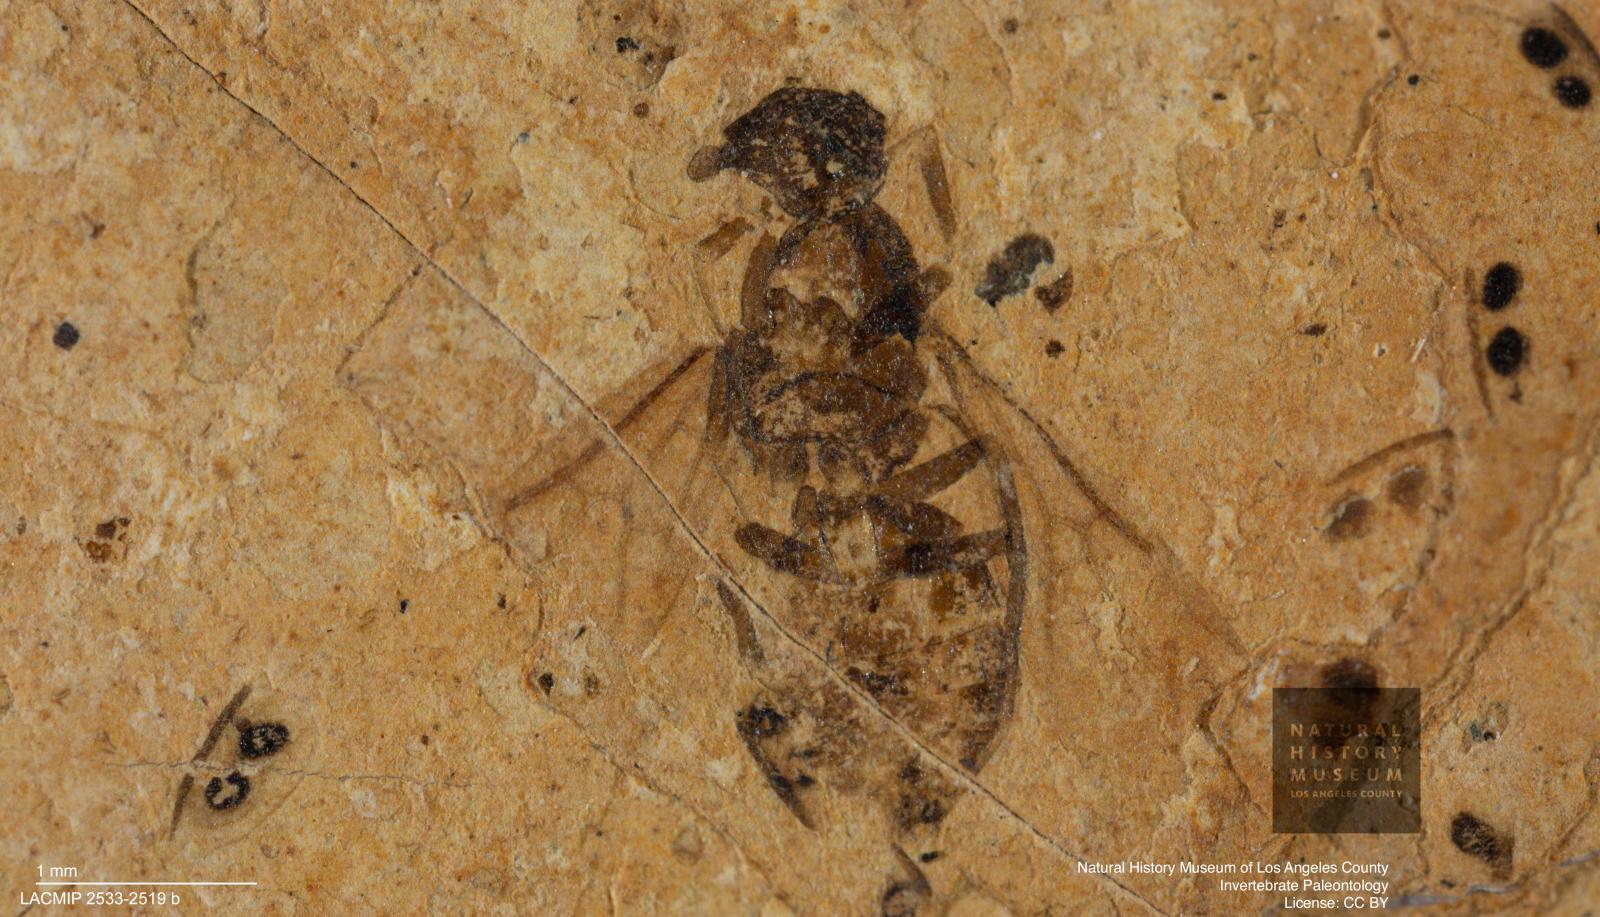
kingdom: Animalia
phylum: Arthropoda
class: Insecta
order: Hymenoptera
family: Formicidae
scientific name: Formicidae
